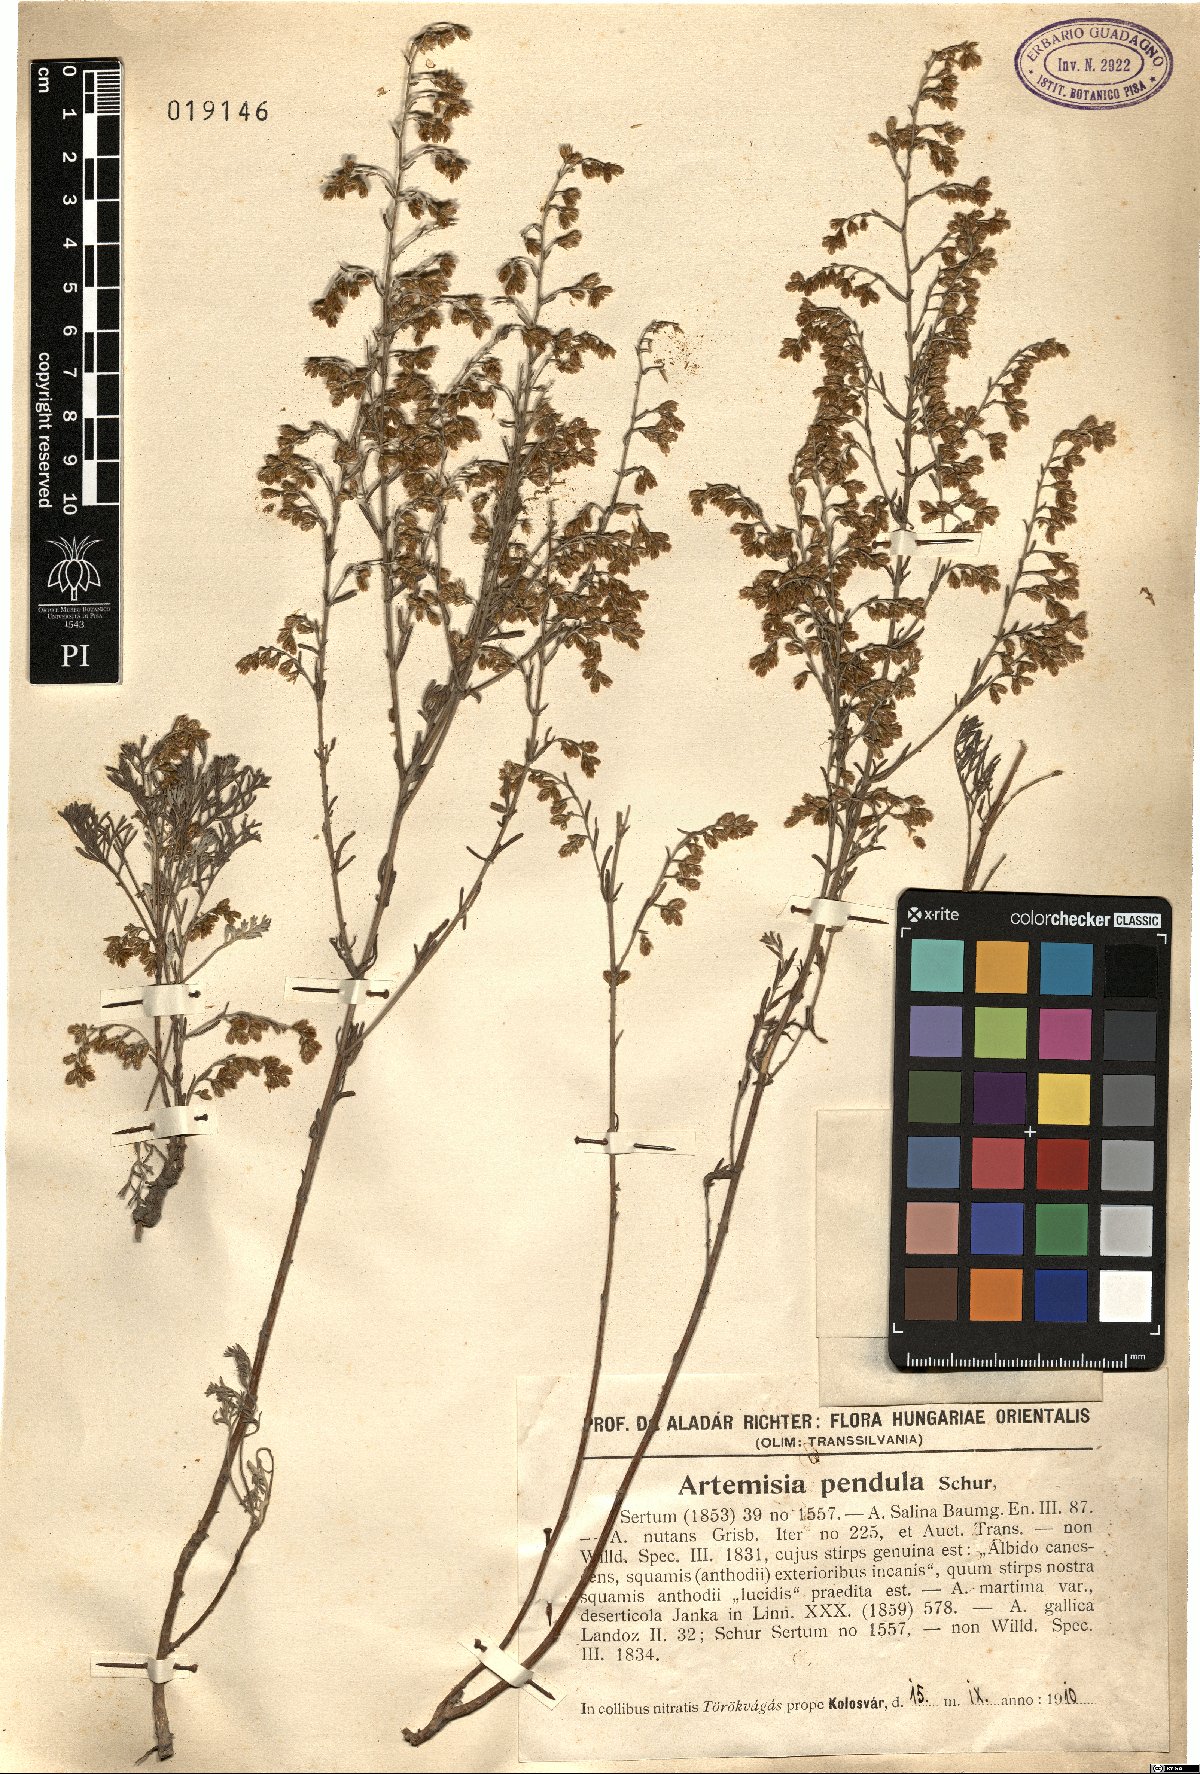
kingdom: Plantae
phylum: Tracheophyta
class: Magnoliopsida
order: Asterales
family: Asteraceae
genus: Artemisia
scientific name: Artemisia fragrans
